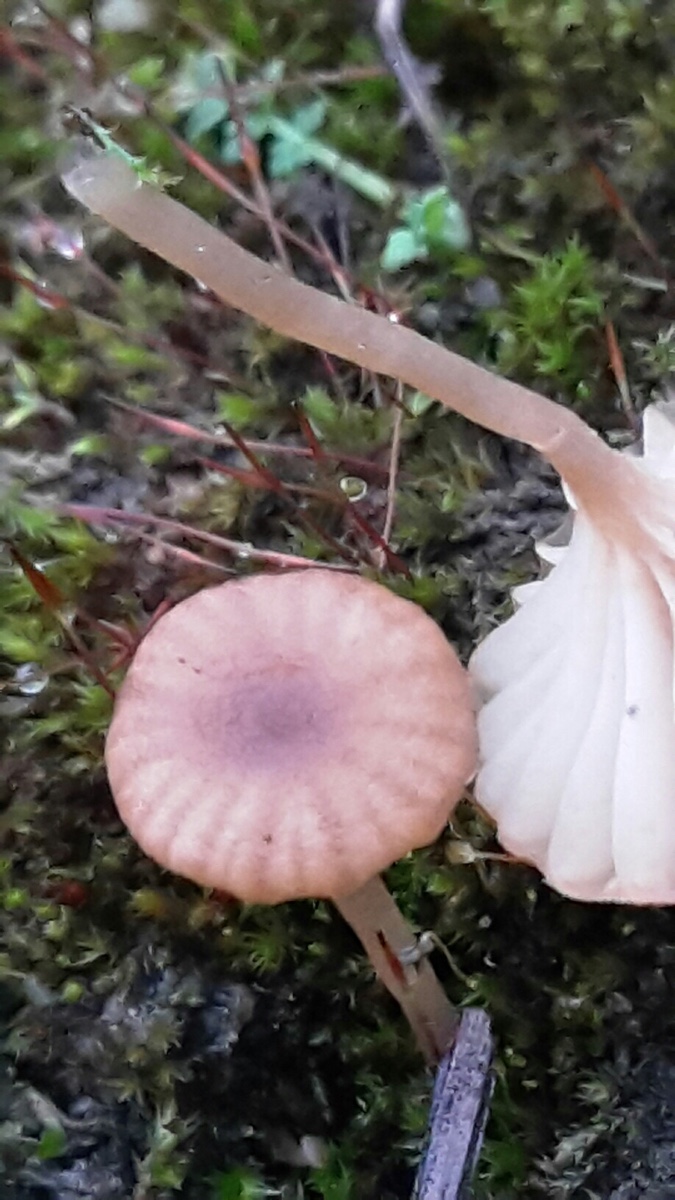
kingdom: Fungi
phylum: Basidiomycota
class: Agaricomycetes
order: Agaricales
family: Tricholomataceae
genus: Omphalina
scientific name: Omphalina pyxidata
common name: rødbrun navlehat
